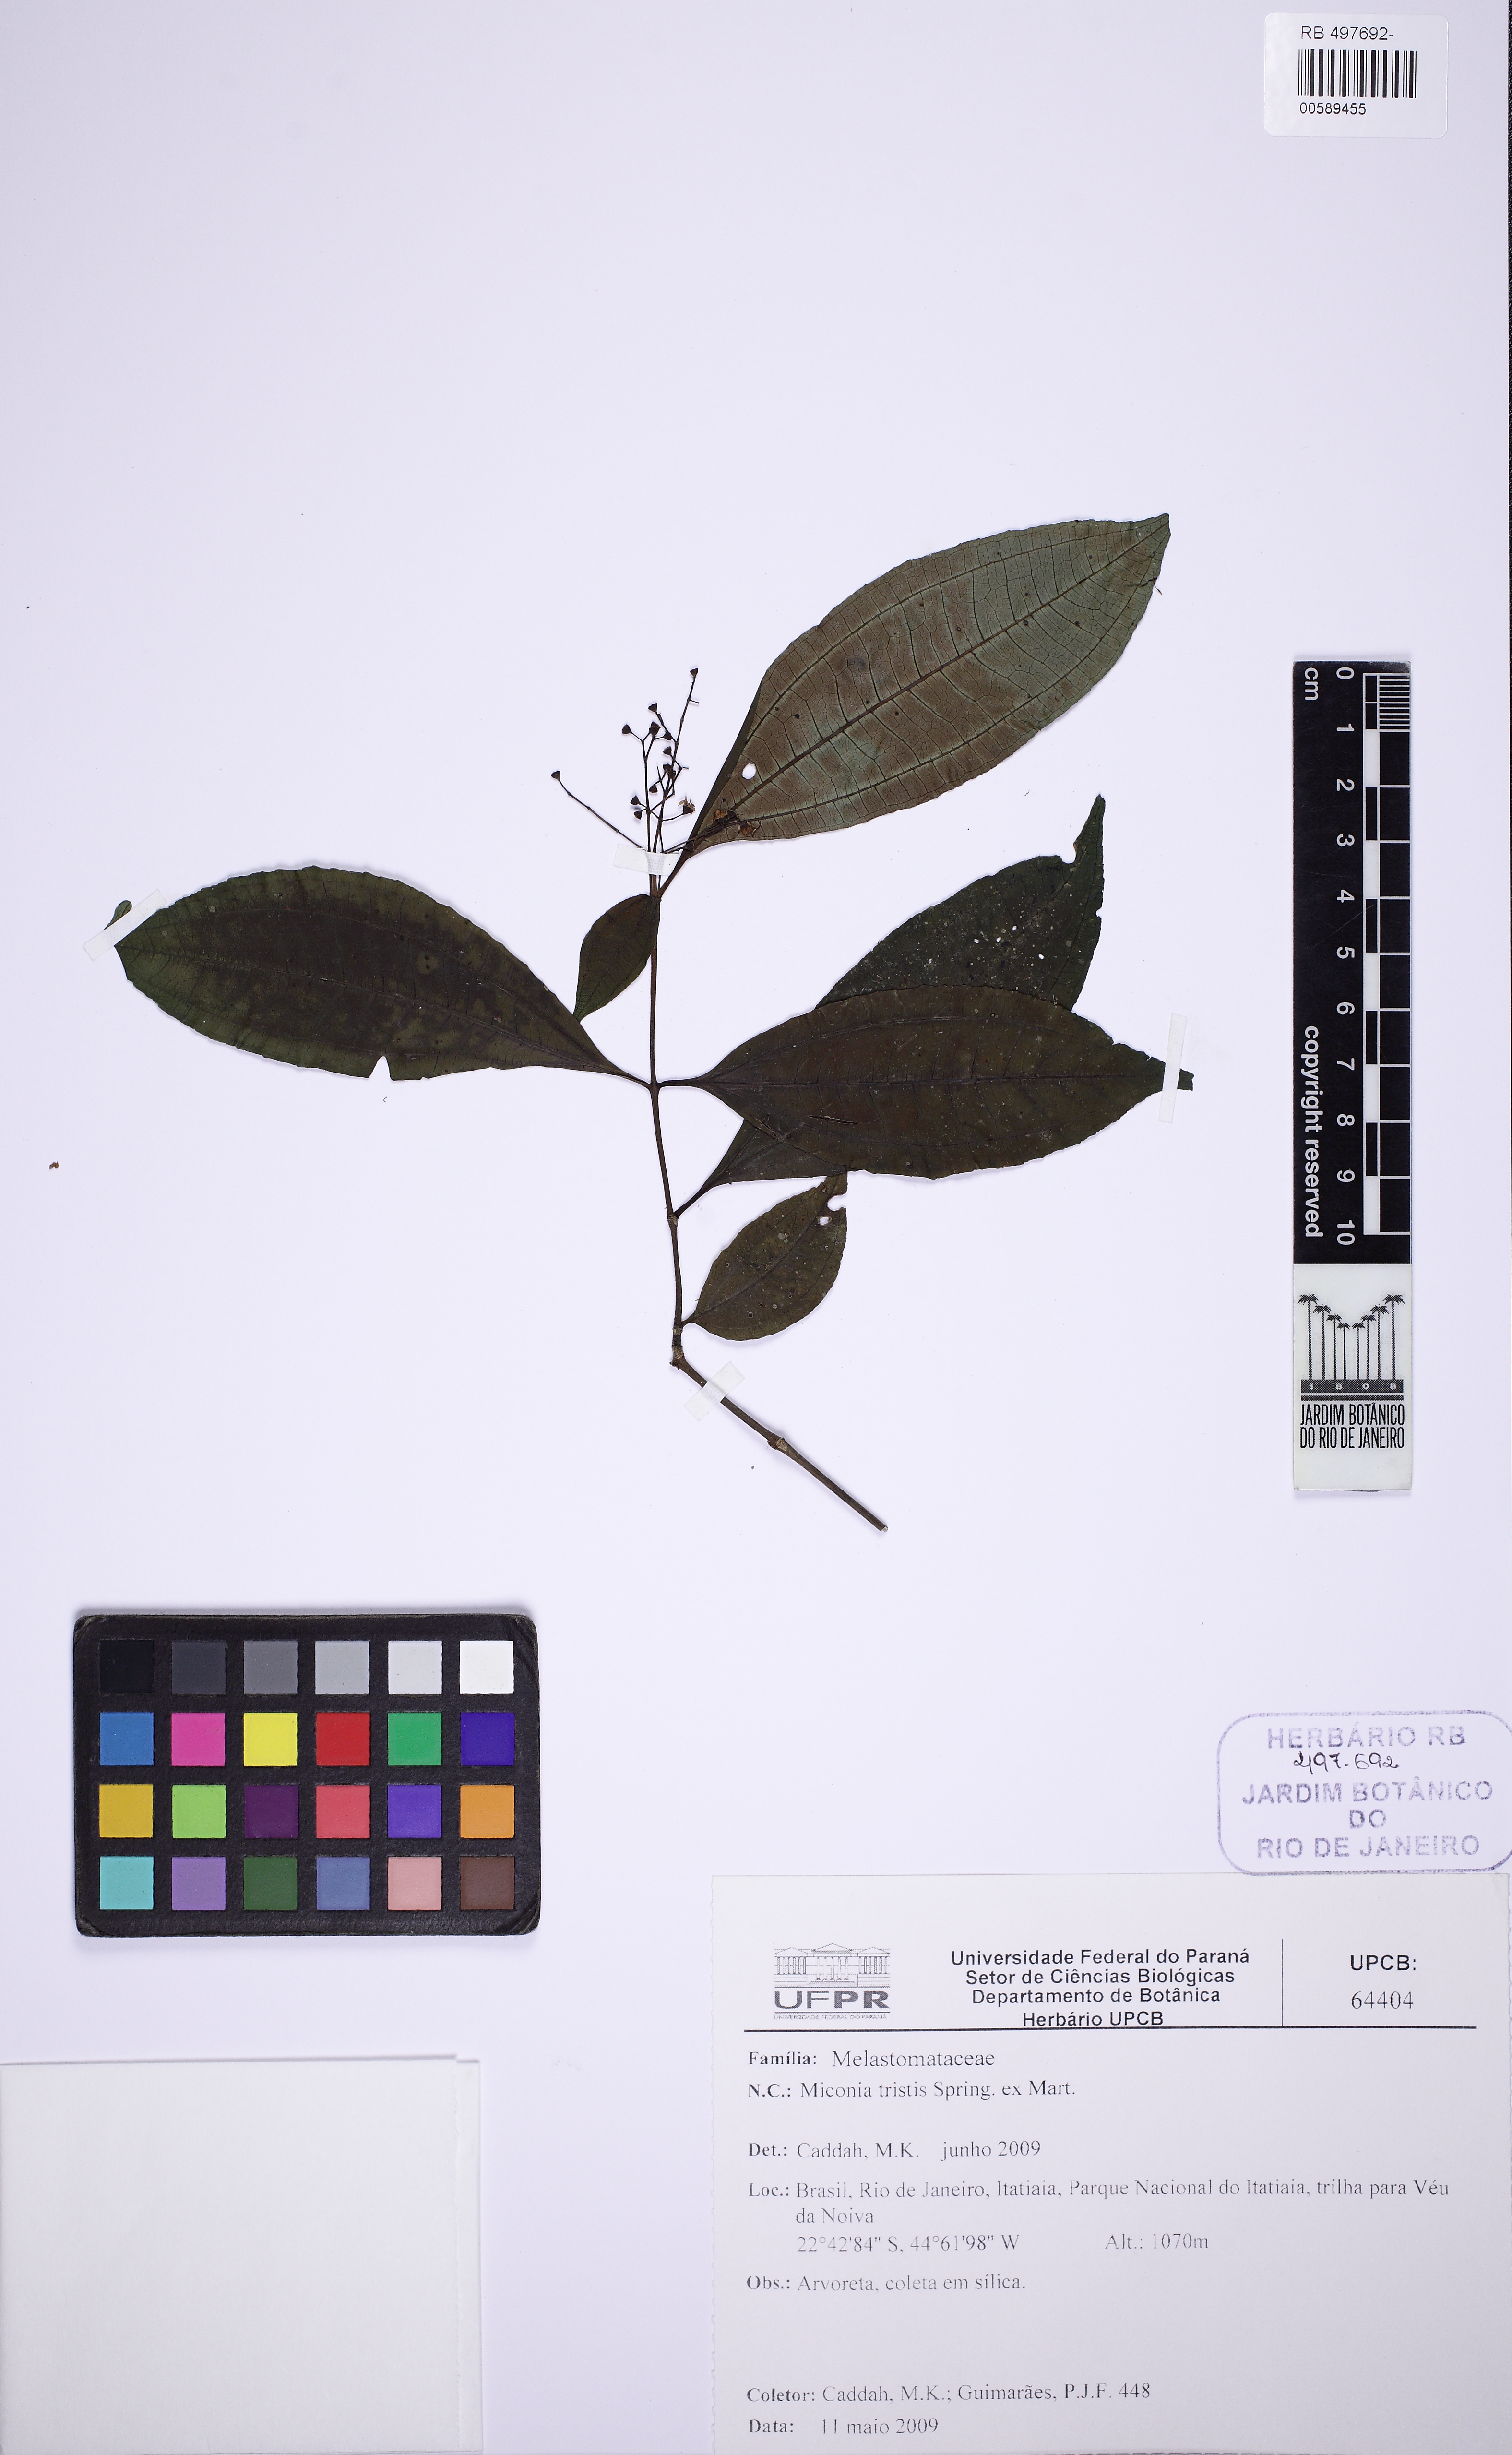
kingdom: Plantae
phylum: Tracheophyta
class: Magnoliopsida
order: Myrtales
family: Melastomataceae
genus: Miconia
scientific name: Miconia tristis
